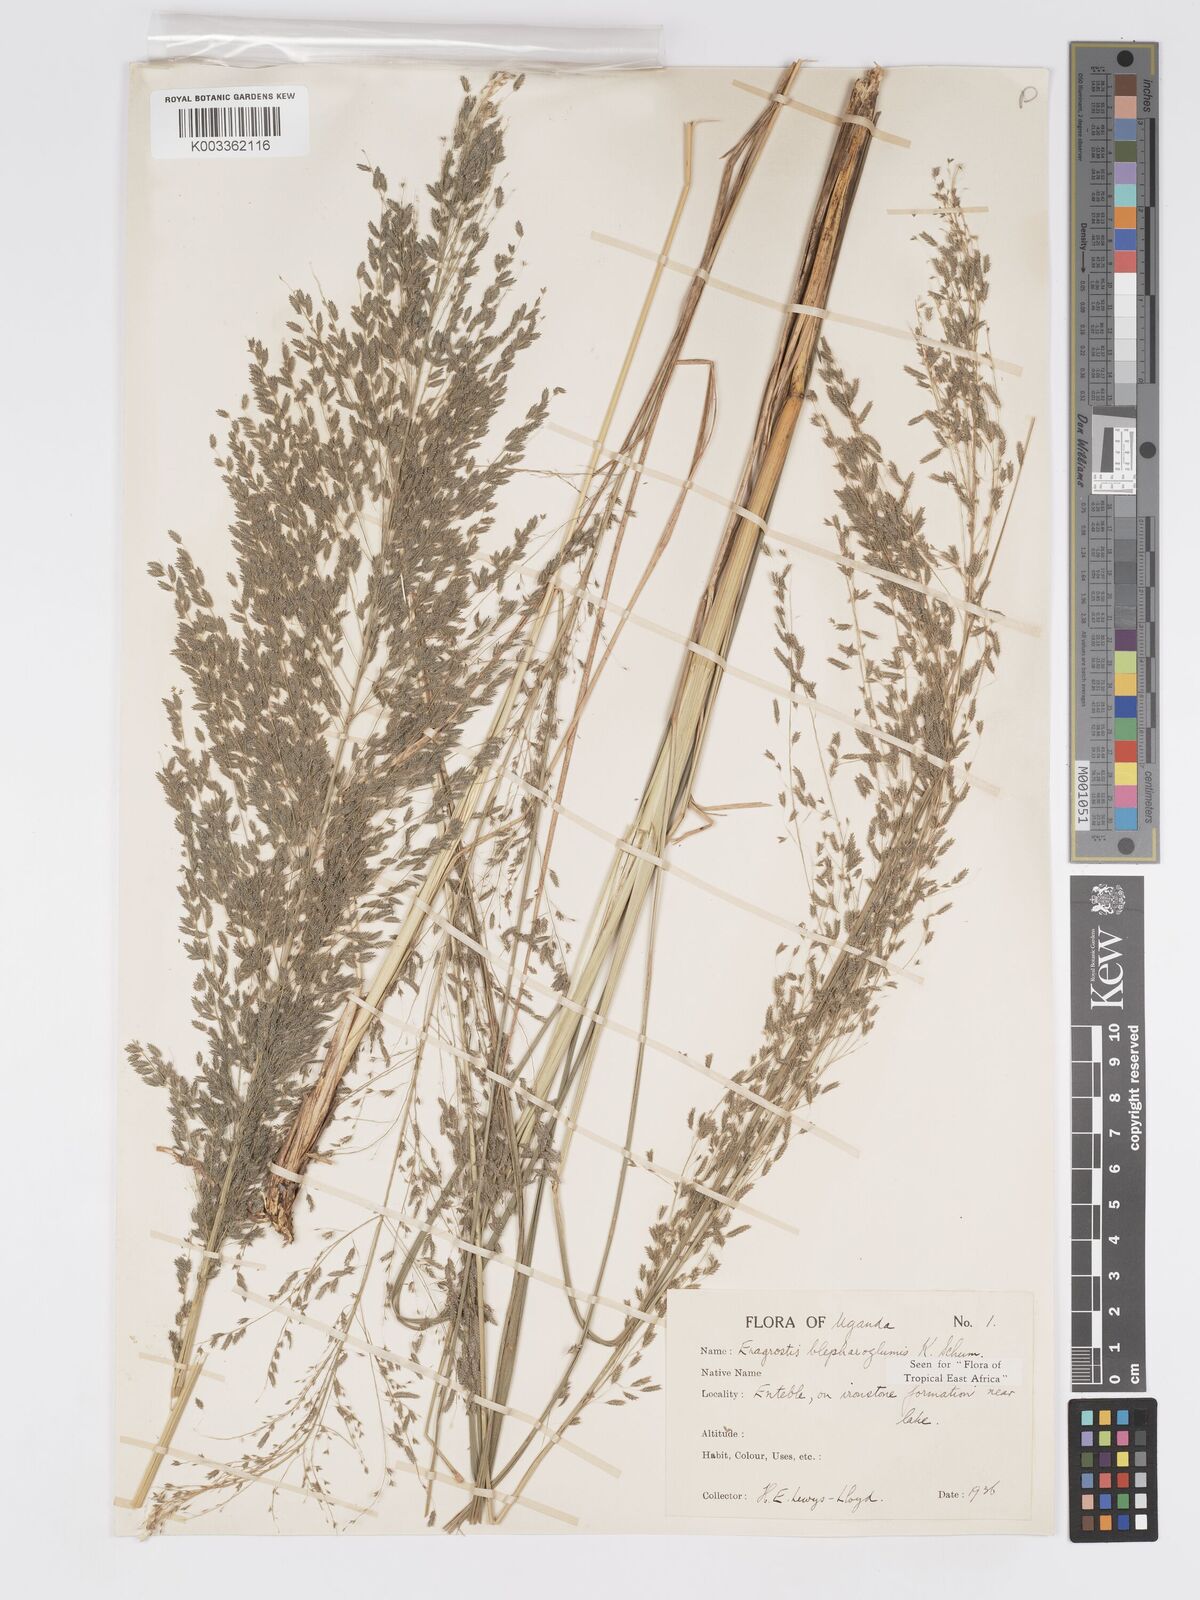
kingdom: Plantae
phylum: Tracheophyta
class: Liliopsida
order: Poales
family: Poaceae
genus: Eragrostis
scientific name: Eragrostis olivacea
